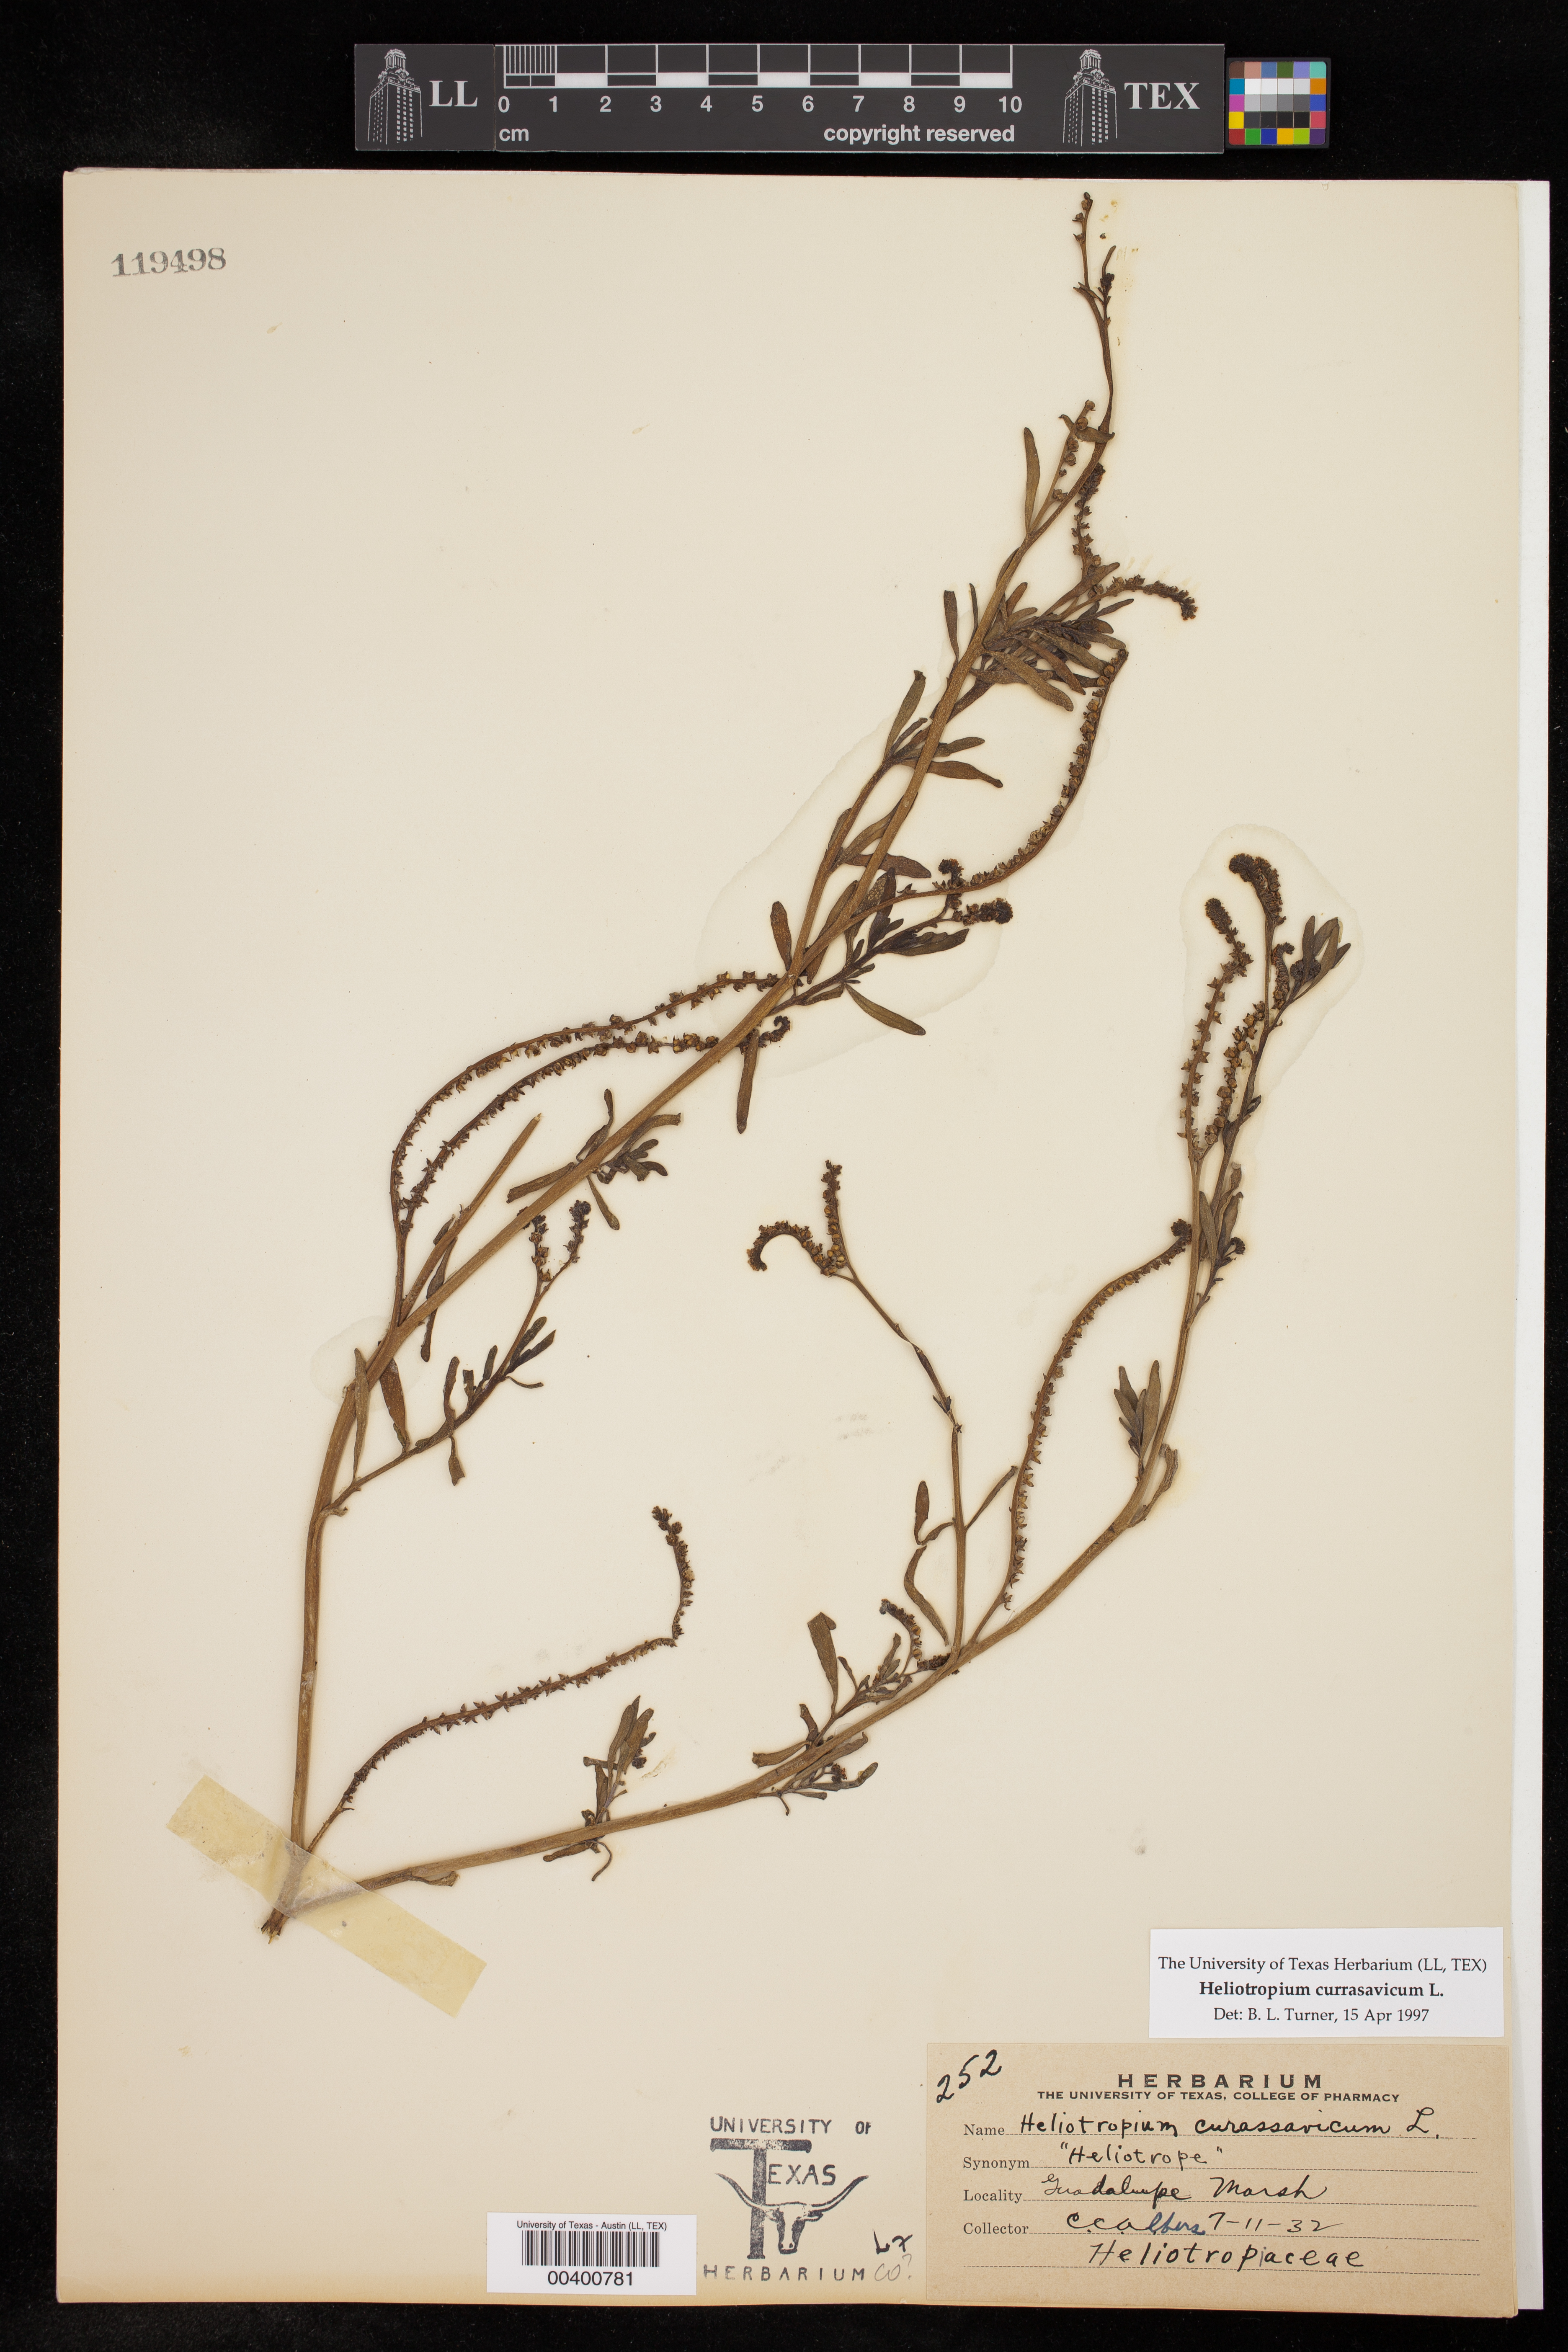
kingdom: Plantae
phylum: Tracheophyta
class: Magnoliopsida
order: Boraginales
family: Heliotropiaceae
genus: Heliotropium
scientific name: Heliotropium curassavicum
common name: Seaside heliotrope
